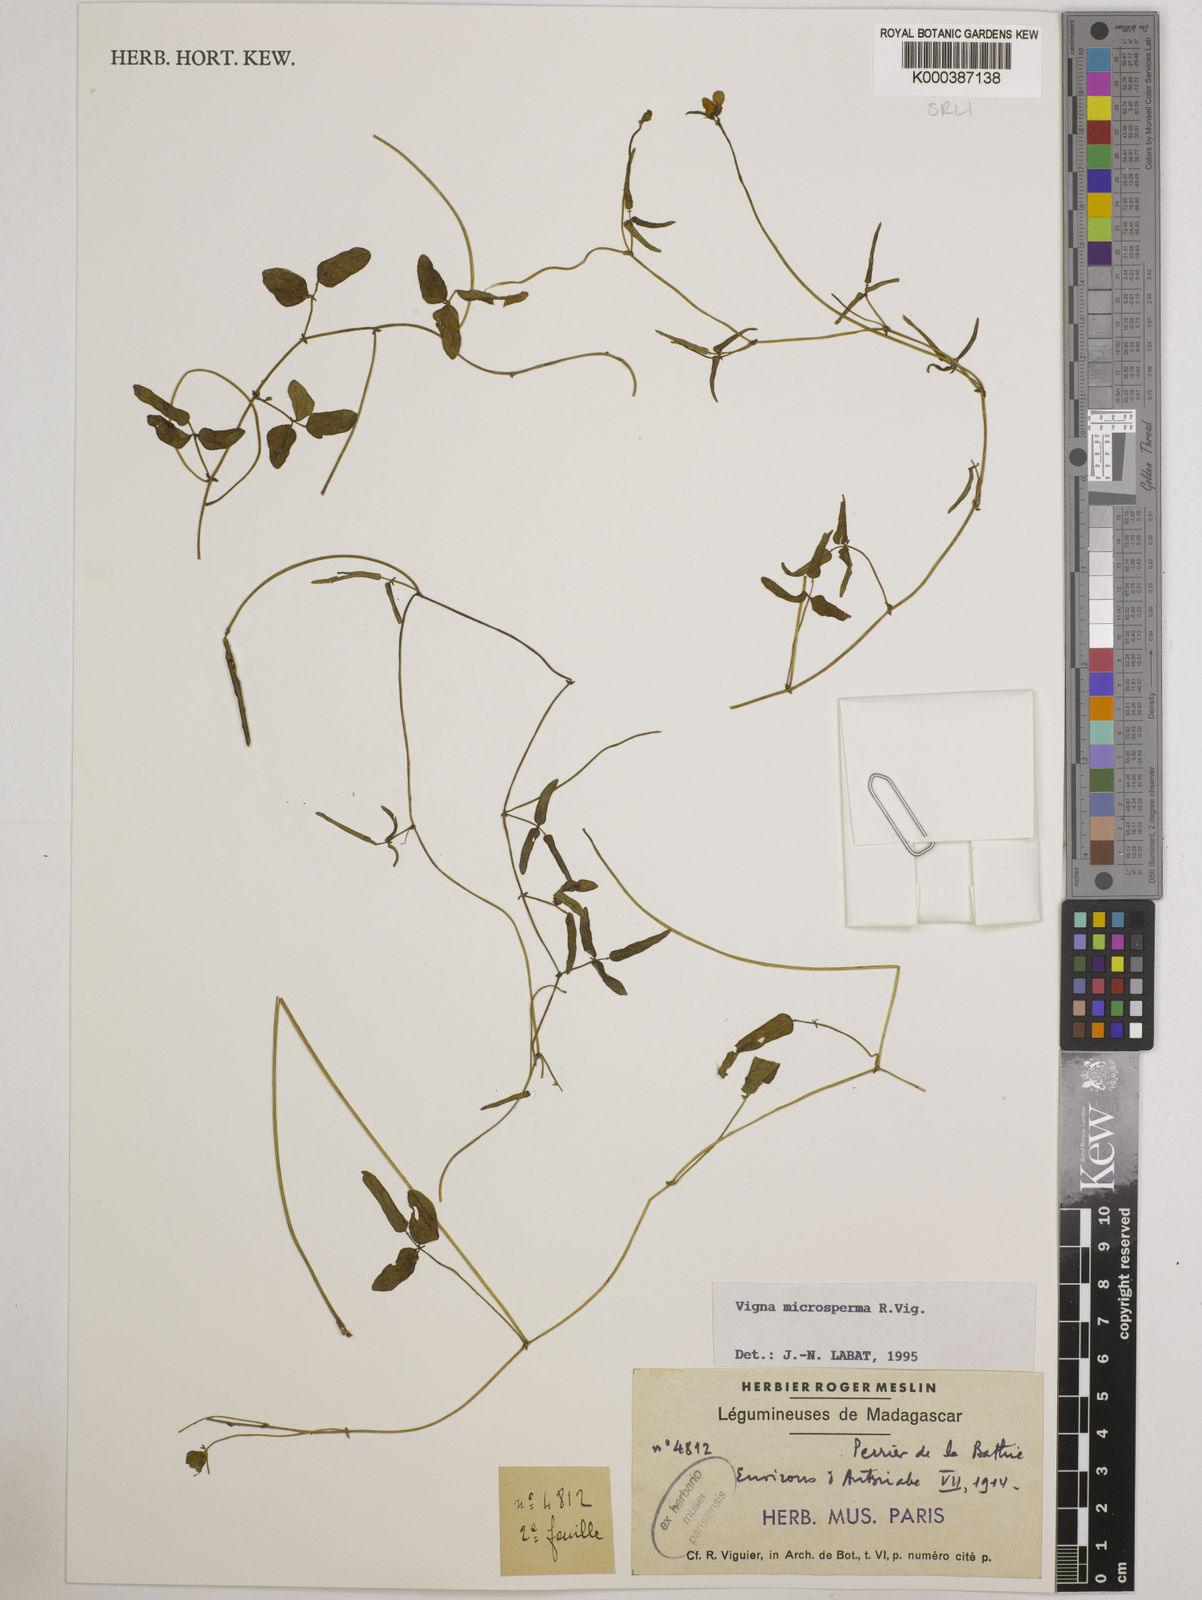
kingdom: Plantae
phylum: Tracheophyta
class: Magnoliopsida
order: Fabales
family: Fabaceae
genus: Vigna
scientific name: Vigna microsperma
